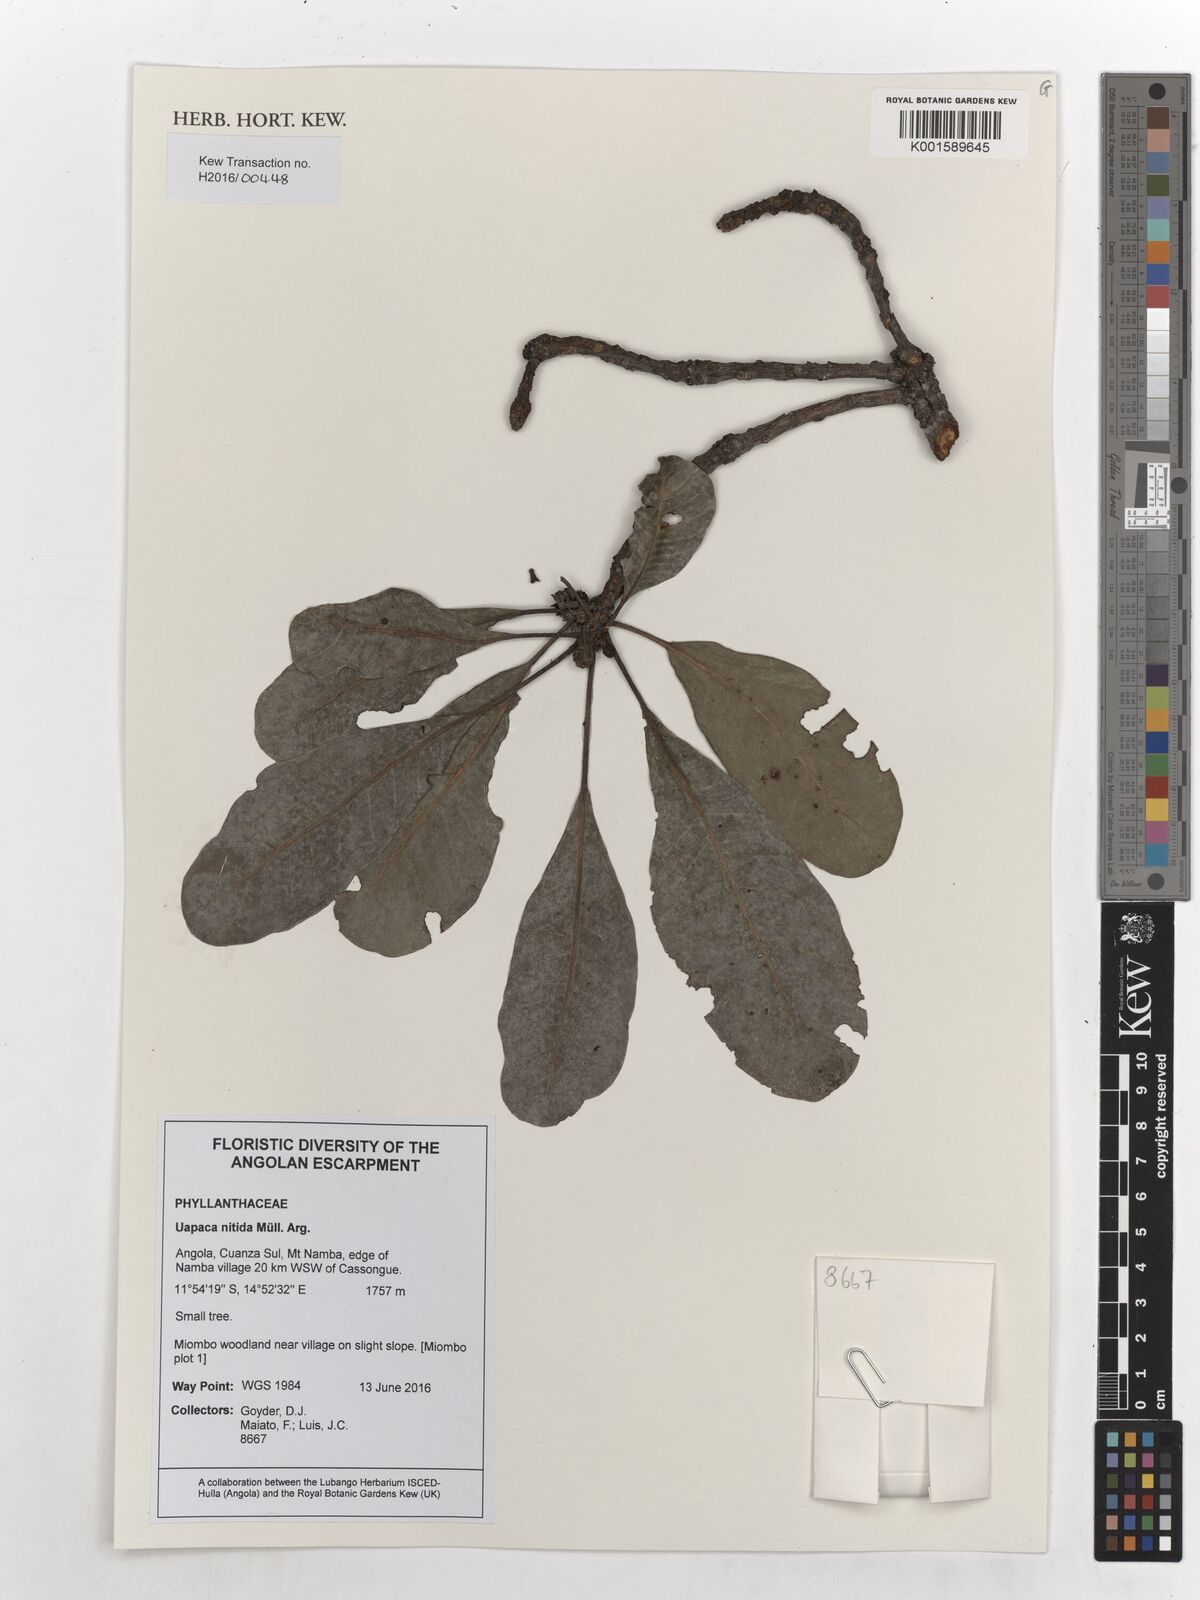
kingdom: Plantae
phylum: Tracheophyta
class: Magnoliopsida
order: Malpighiales
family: Phyllanthaceae
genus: Uapaca
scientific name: Uapaca nitida
